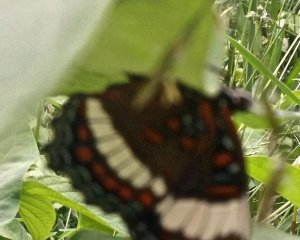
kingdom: Animalia
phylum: Arthropoda
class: Insecta
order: Lepidoptera
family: Nymphalidae
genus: Limenitis
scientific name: Limenitis arthemis
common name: Red-spotted Admiral
